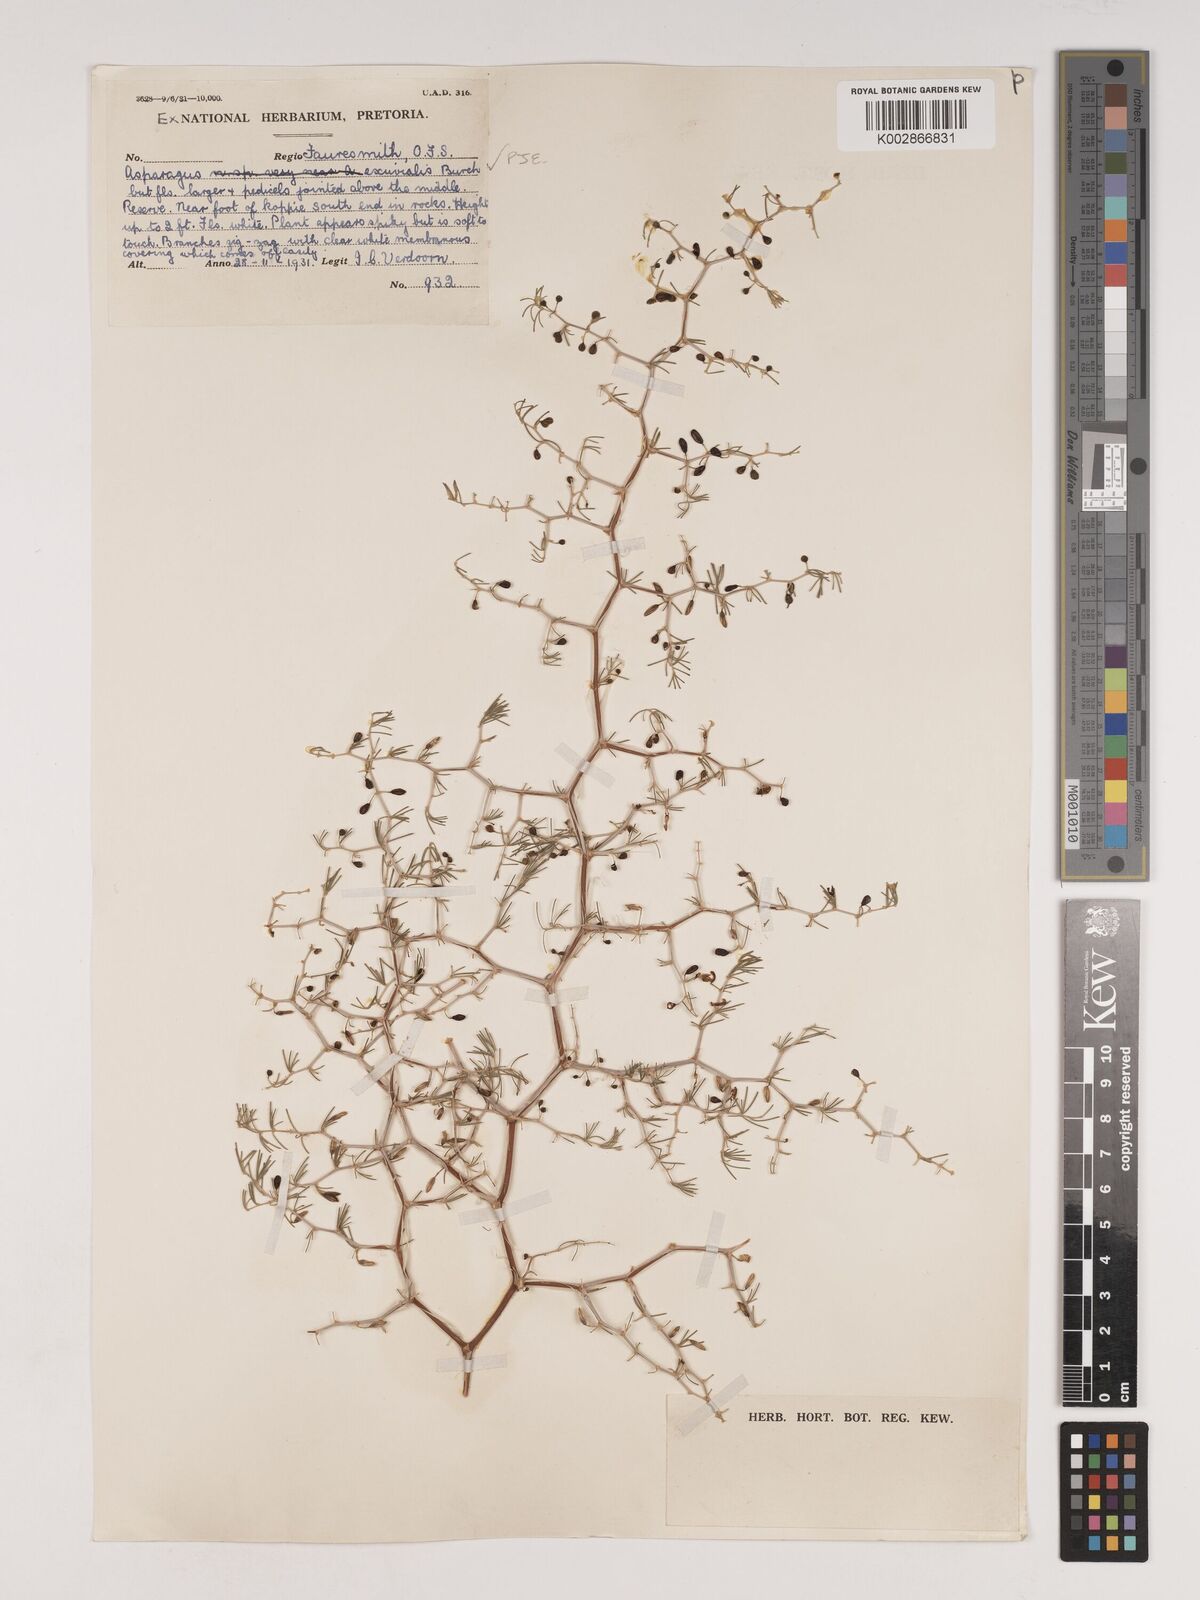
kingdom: Plantae
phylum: Tracheophyta
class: Liliopsida
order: Asparagales
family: Asparagaceae
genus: Asparagus
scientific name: Asparagus exuvialis
